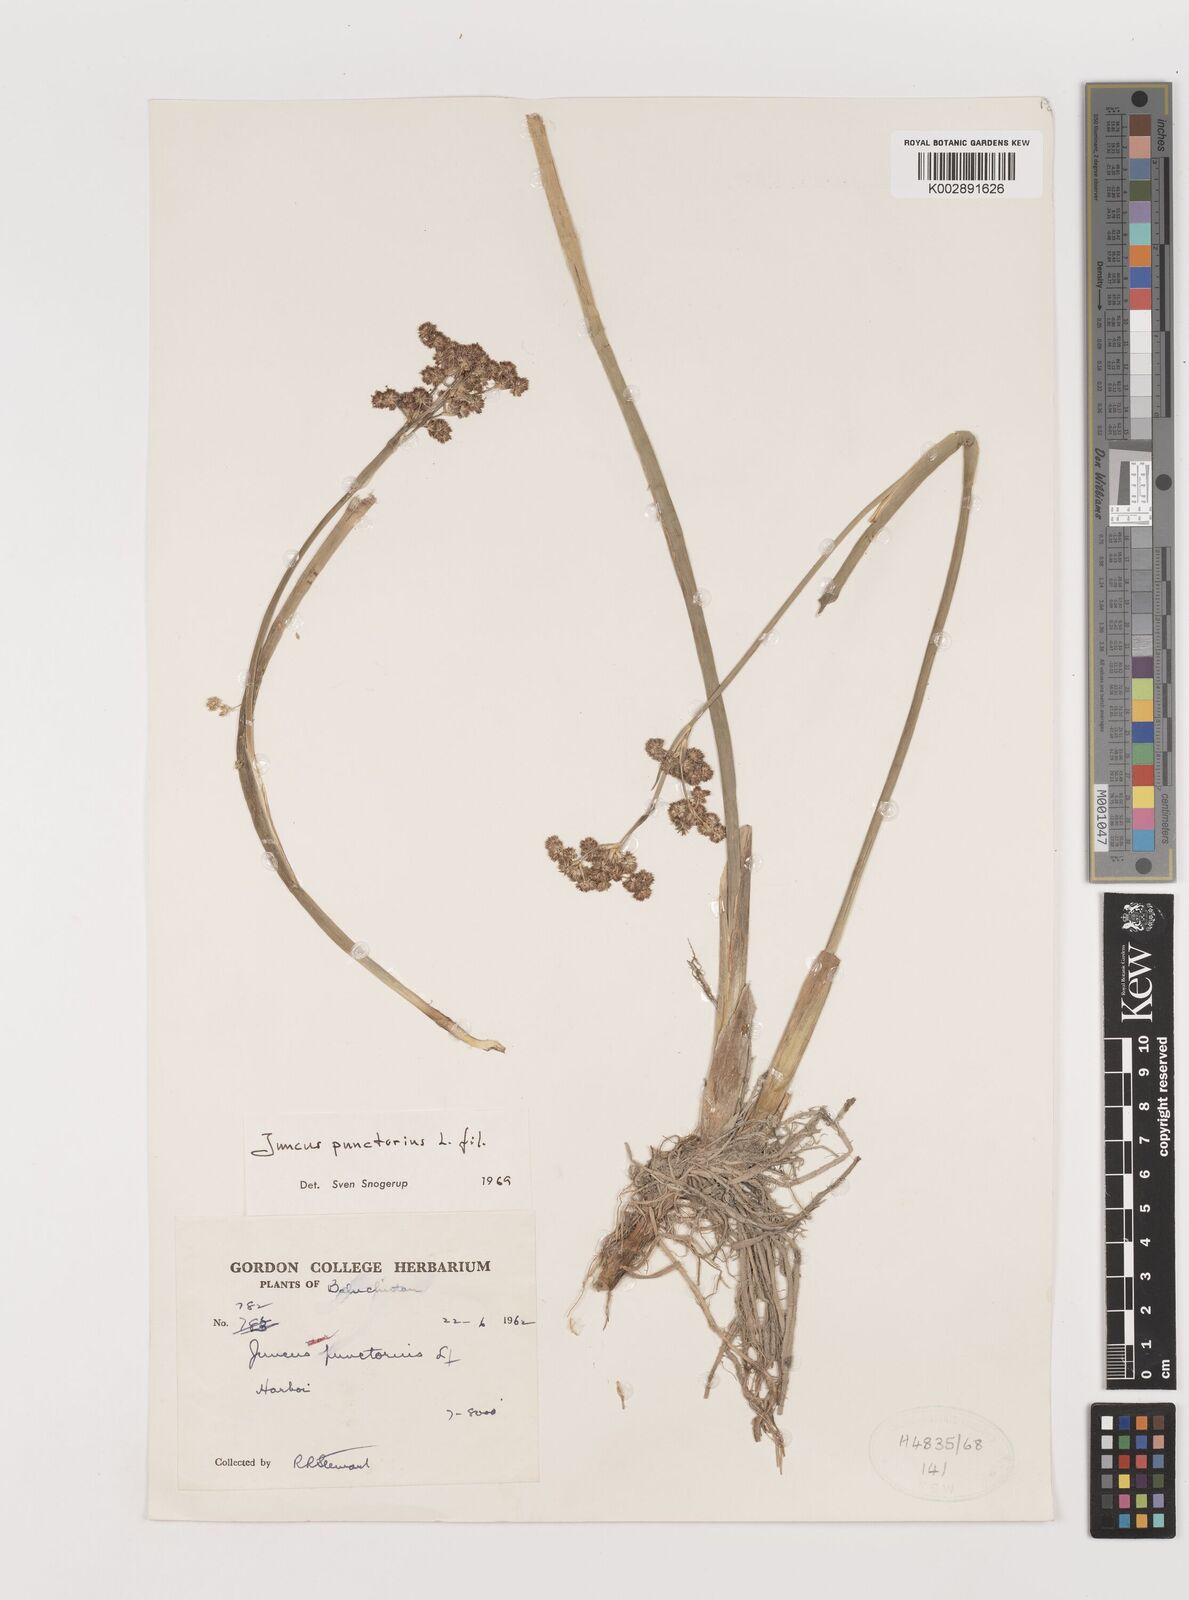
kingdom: Plantae
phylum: Tracheophyta
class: Liliopsida
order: Poales
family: Juncaceae
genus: Juncus
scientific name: Juncus punctorius
